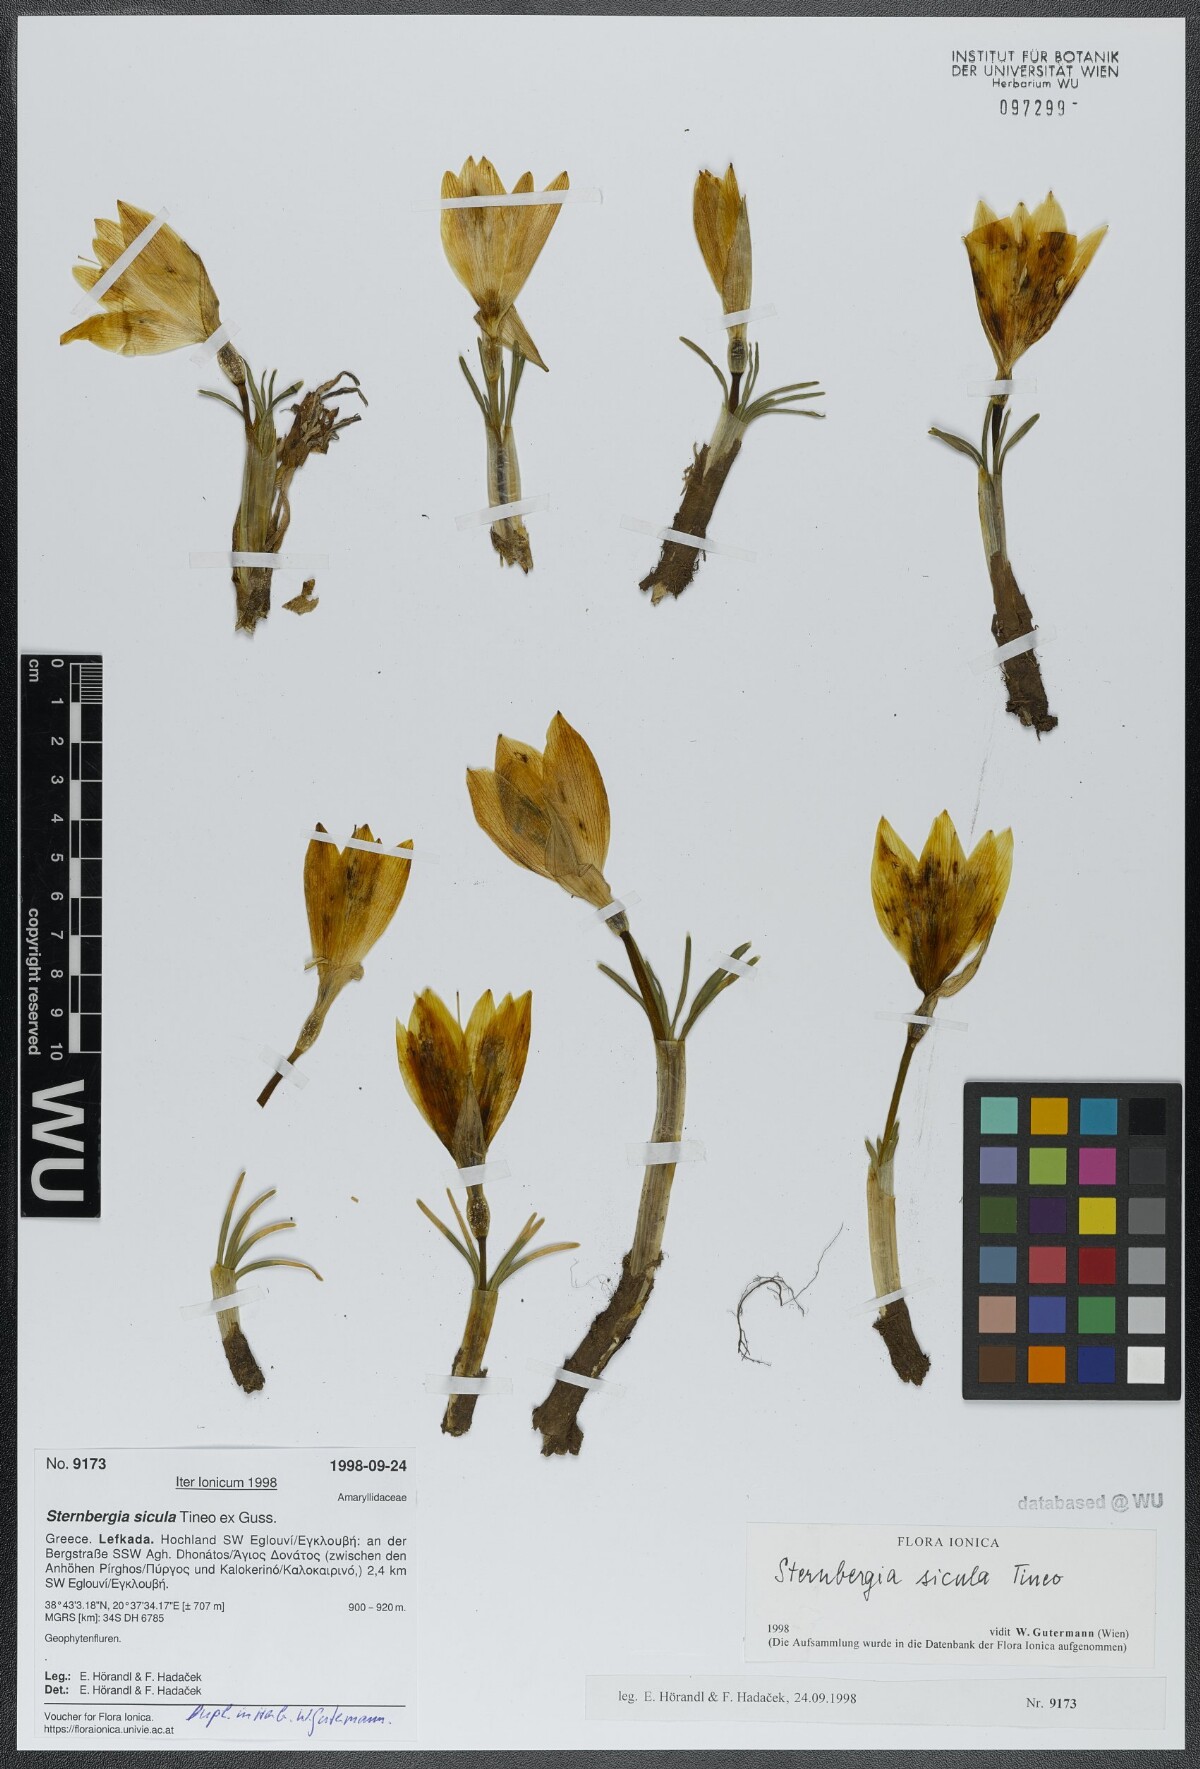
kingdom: Plantae
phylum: Tracheophyta
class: Liliopsida
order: Asparagales
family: Amaryllidaceae
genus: Sternbergia
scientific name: Sternbergia lutea
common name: Winter daffodil
